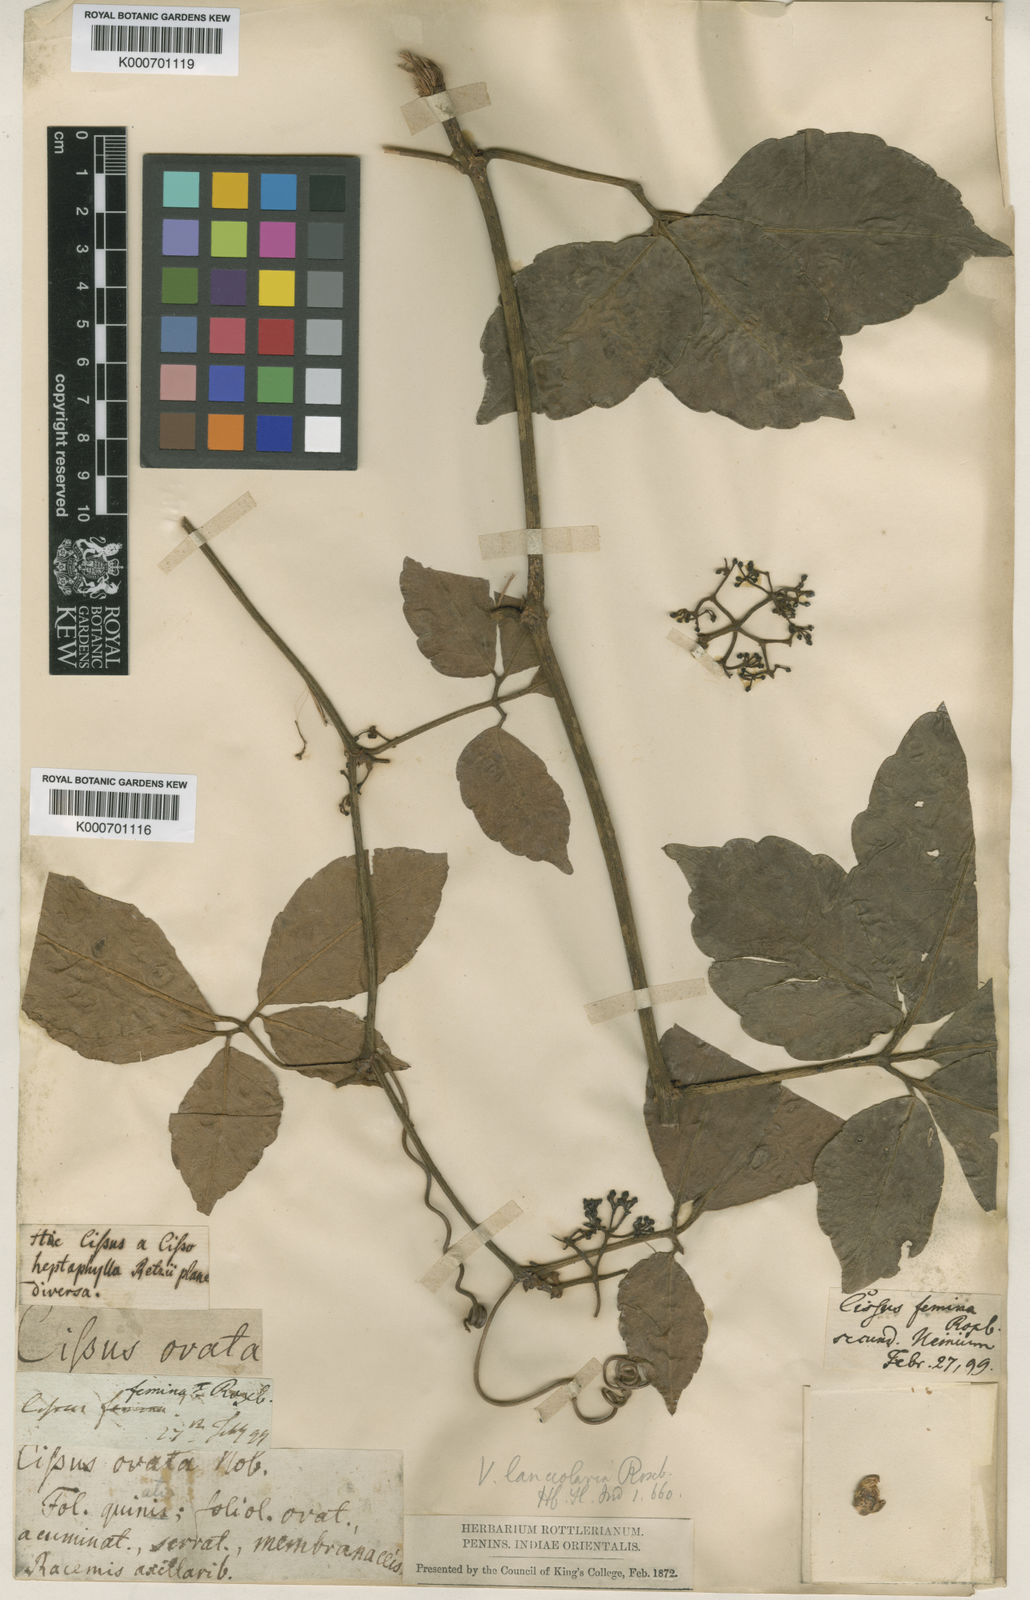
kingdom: Plantae
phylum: Tracheophyta
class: Magnoliopsida
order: Vitales
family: Vitaceae
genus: Tetrastigma
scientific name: Tetrastigma
